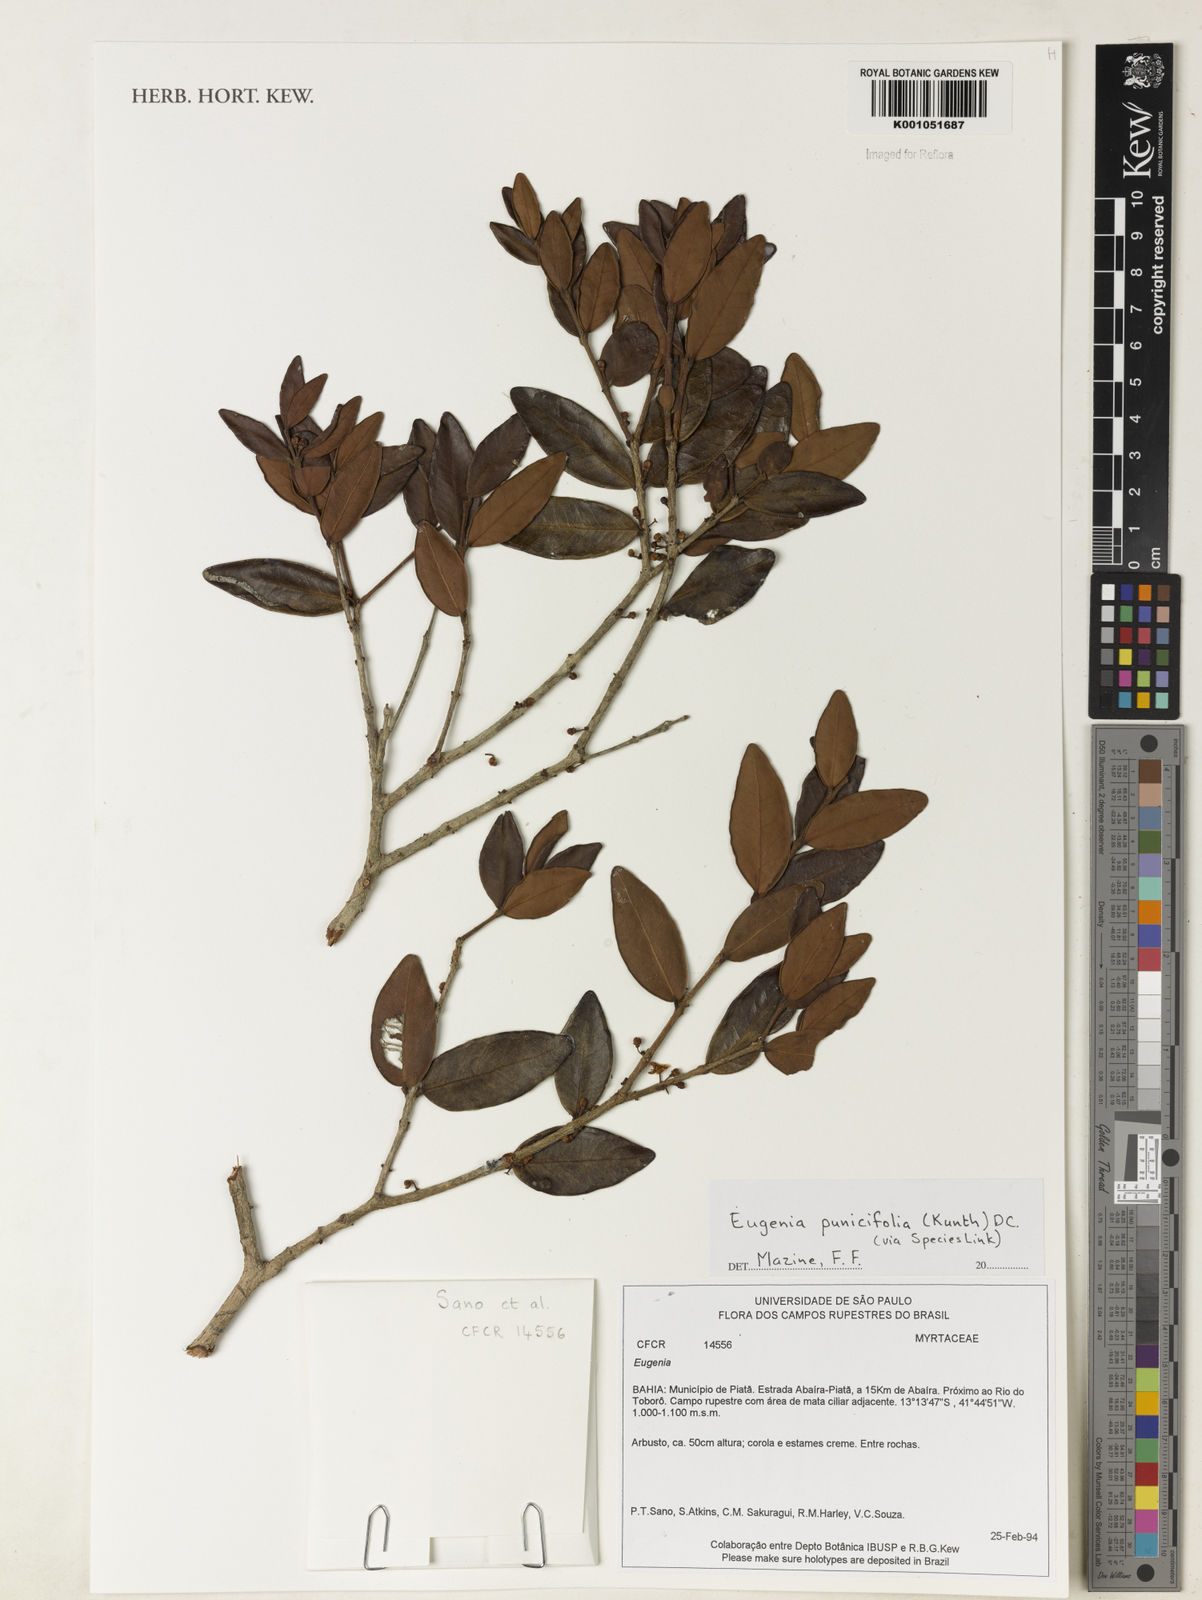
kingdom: Plantae
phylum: Tracheophyta
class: Magnoliopsida
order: Myrtales
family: Myrtaceae
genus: Eugenia
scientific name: Eugenia punicifolia
